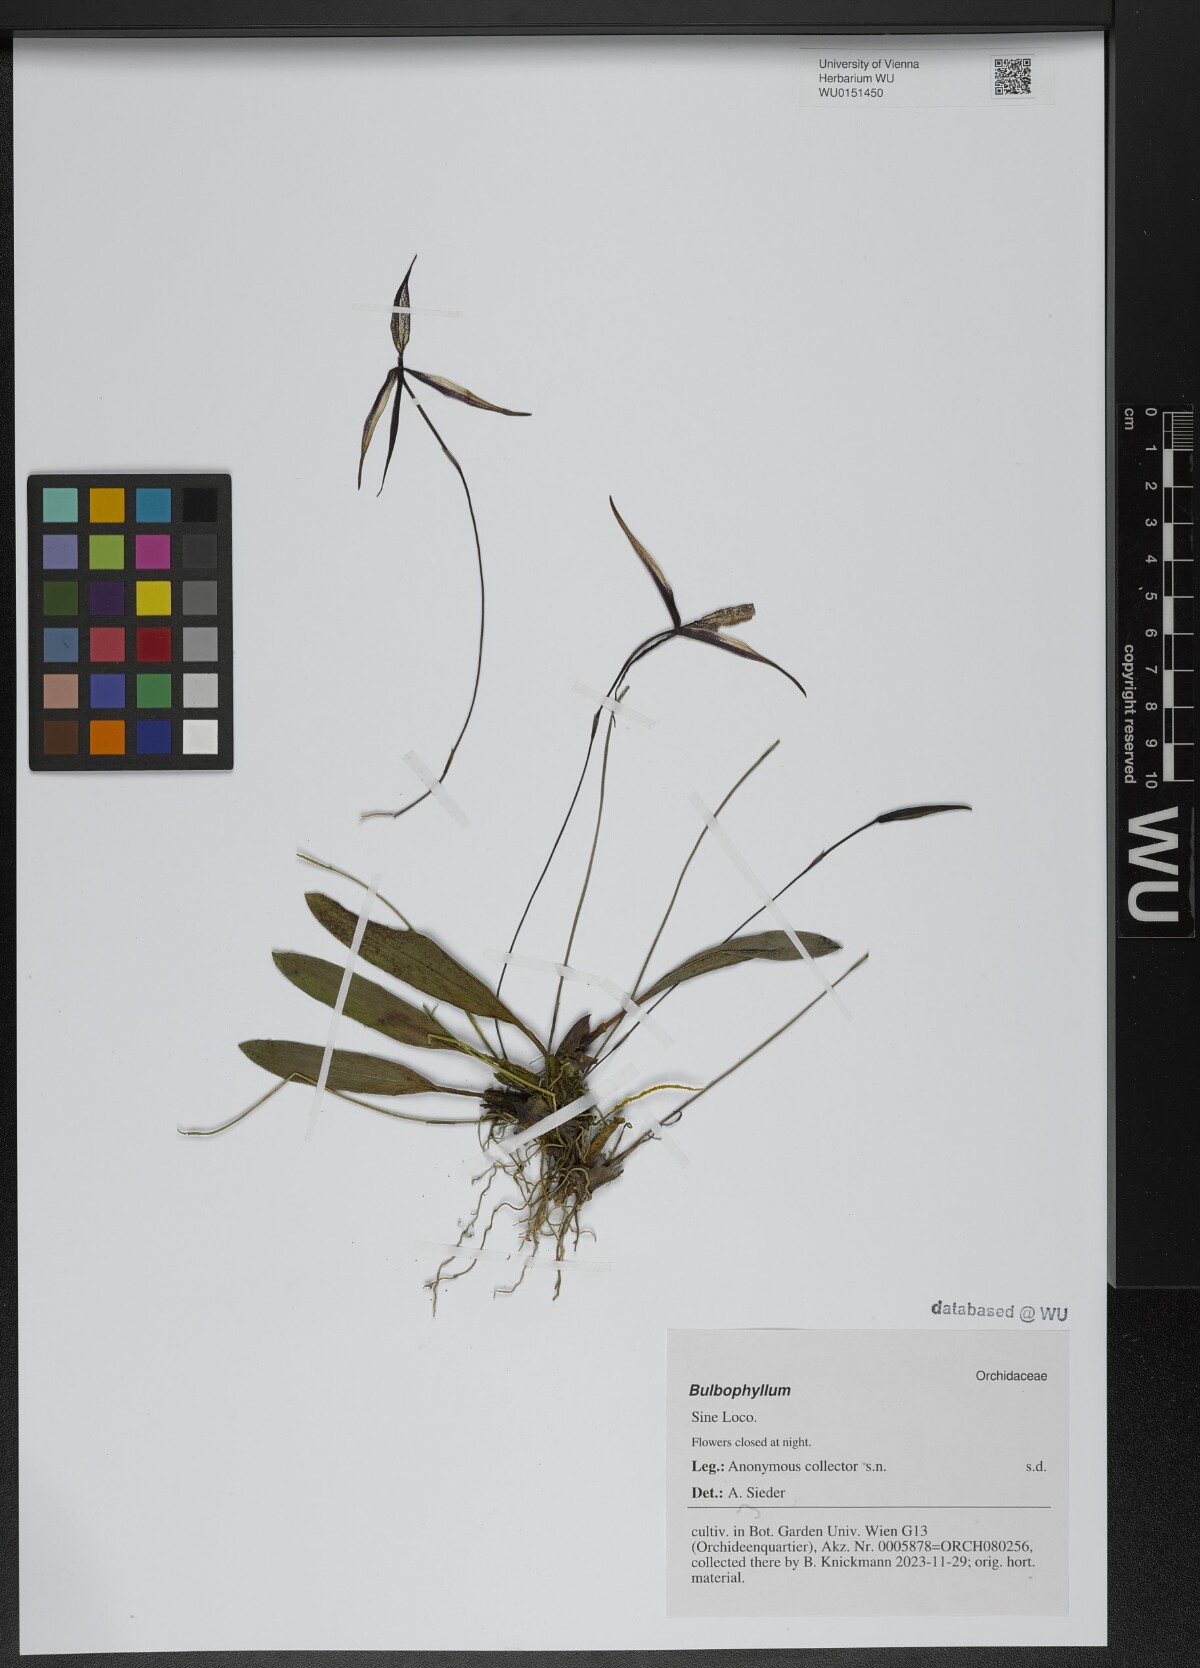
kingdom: Plantae
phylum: Tracheophyta
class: Liliopsida
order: Asparagales
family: Orchidaceae
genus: Bulbophyllum
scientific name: Bulbophyllum
